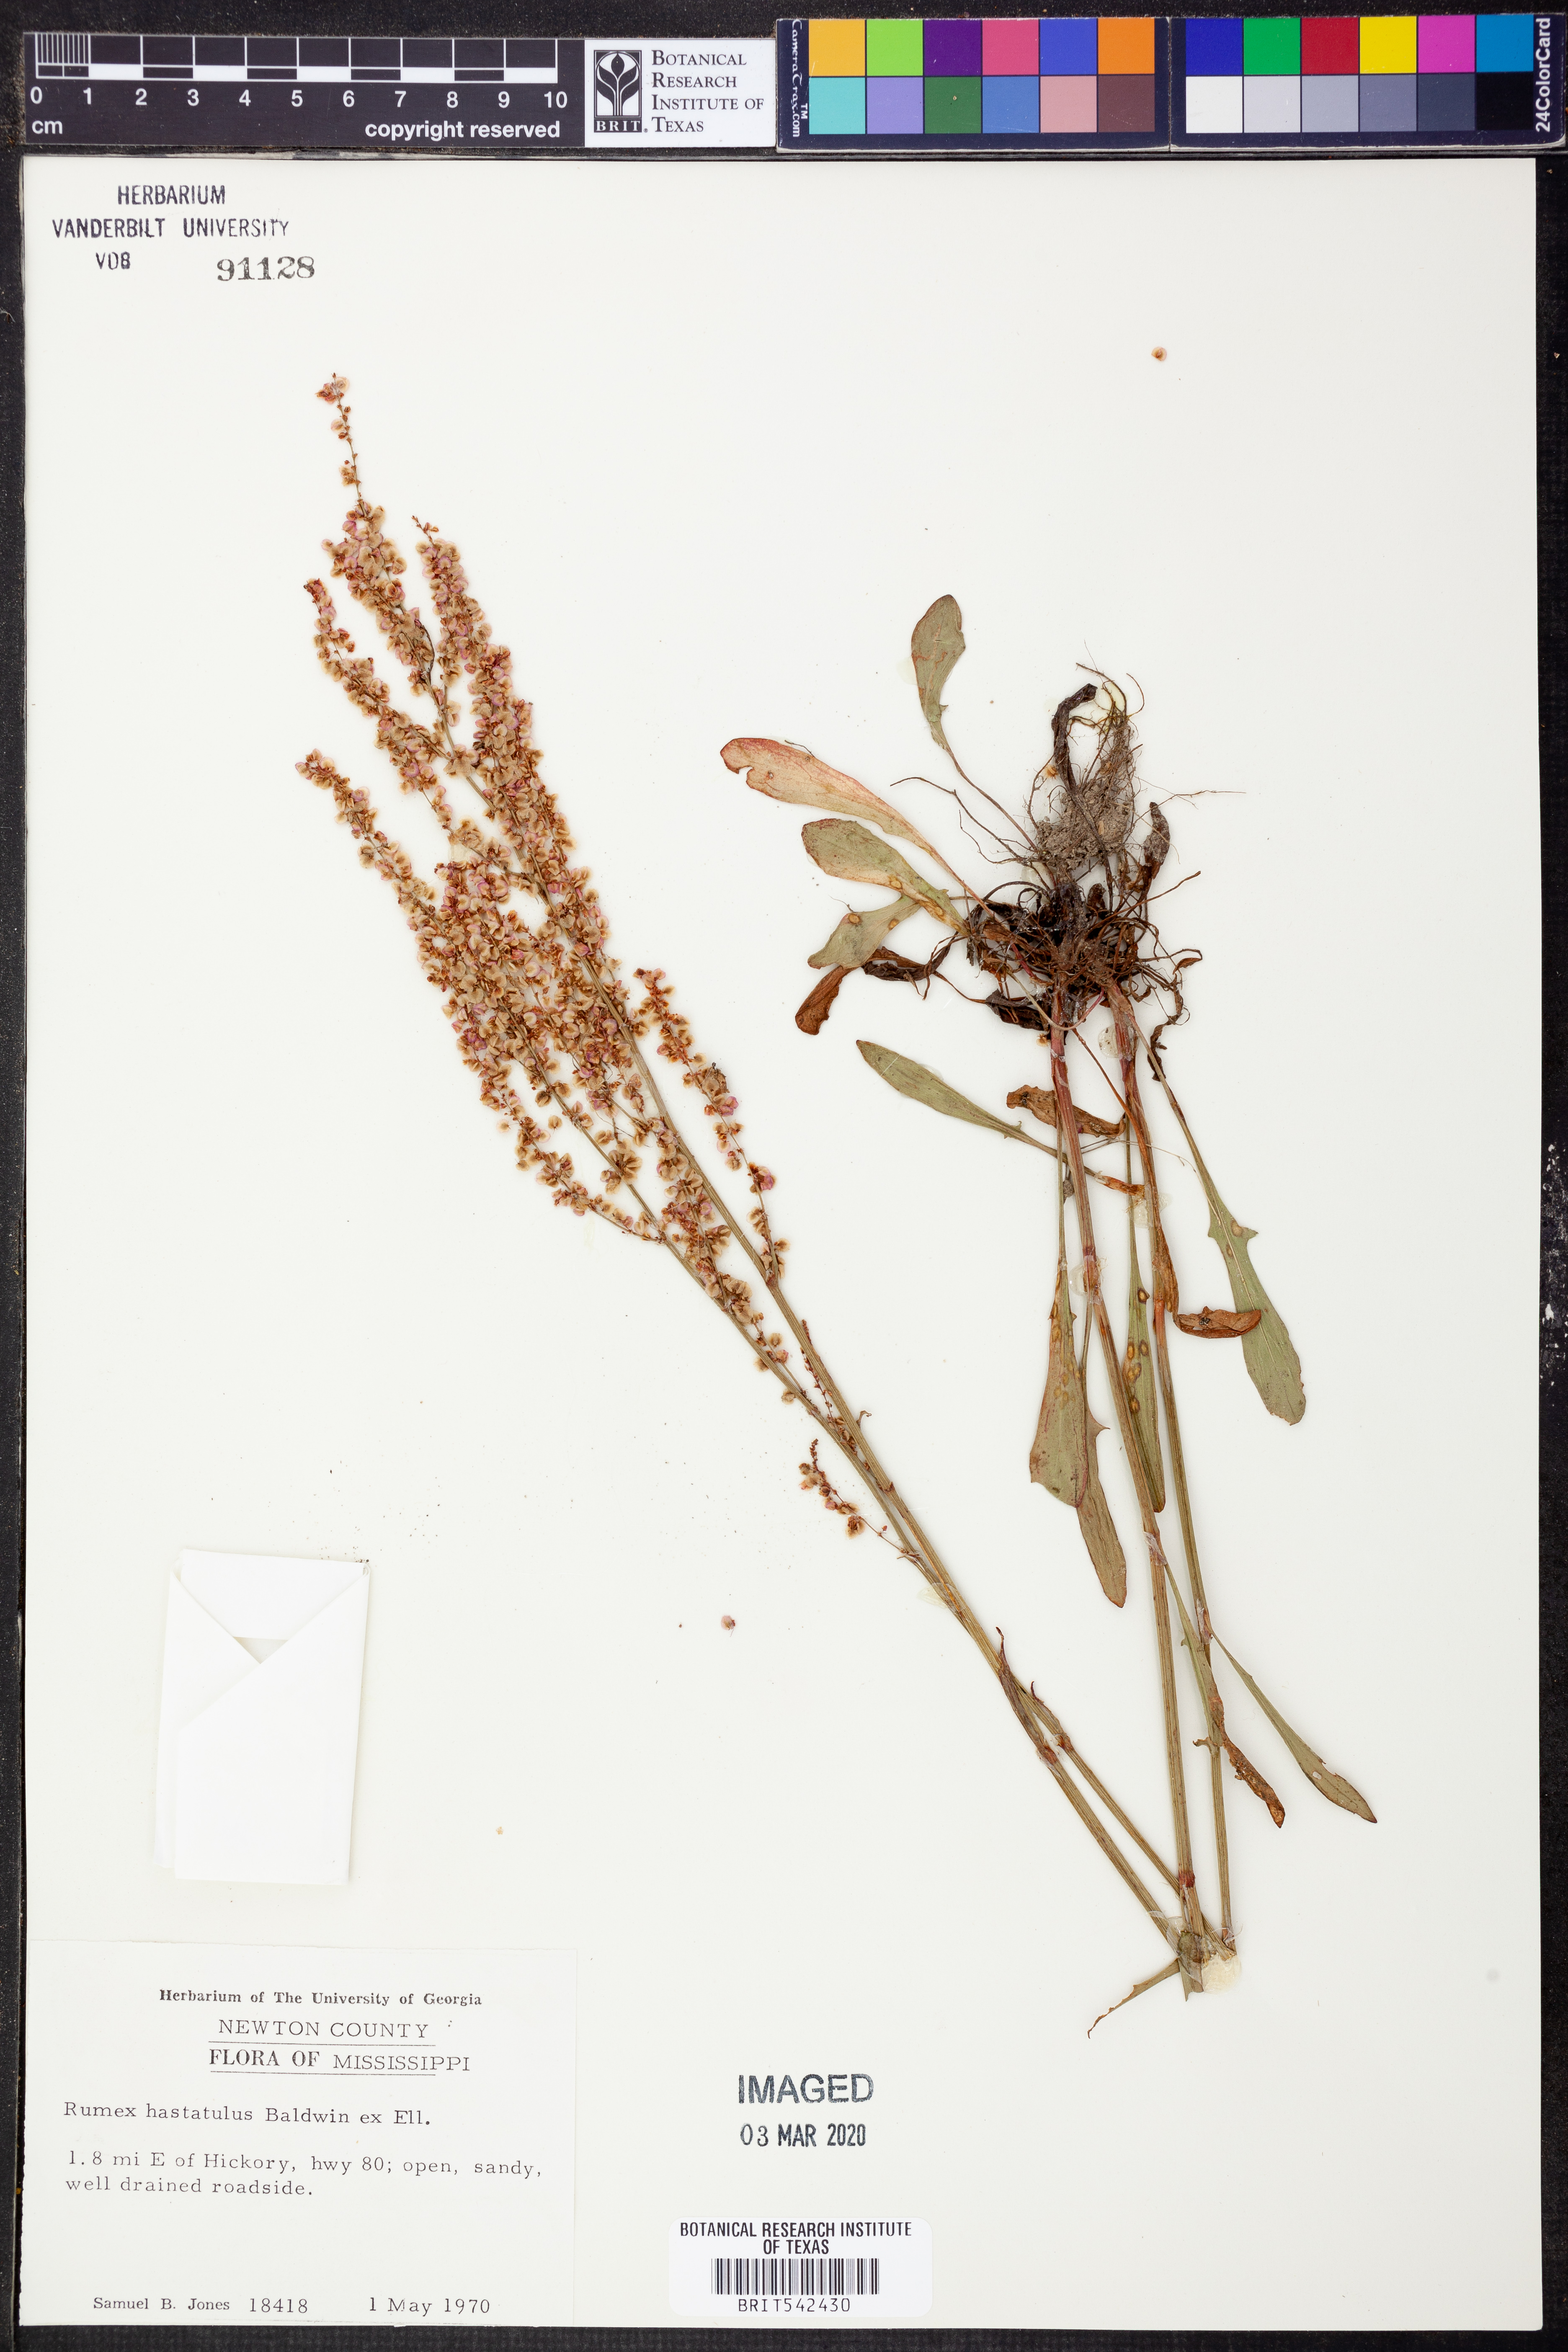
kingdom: Plantae
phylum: Tracheophyta
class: Magnoliopsida
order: Caryophyllales
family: Polygonaceae
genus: Rumex
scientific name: Rumex hastatulus
